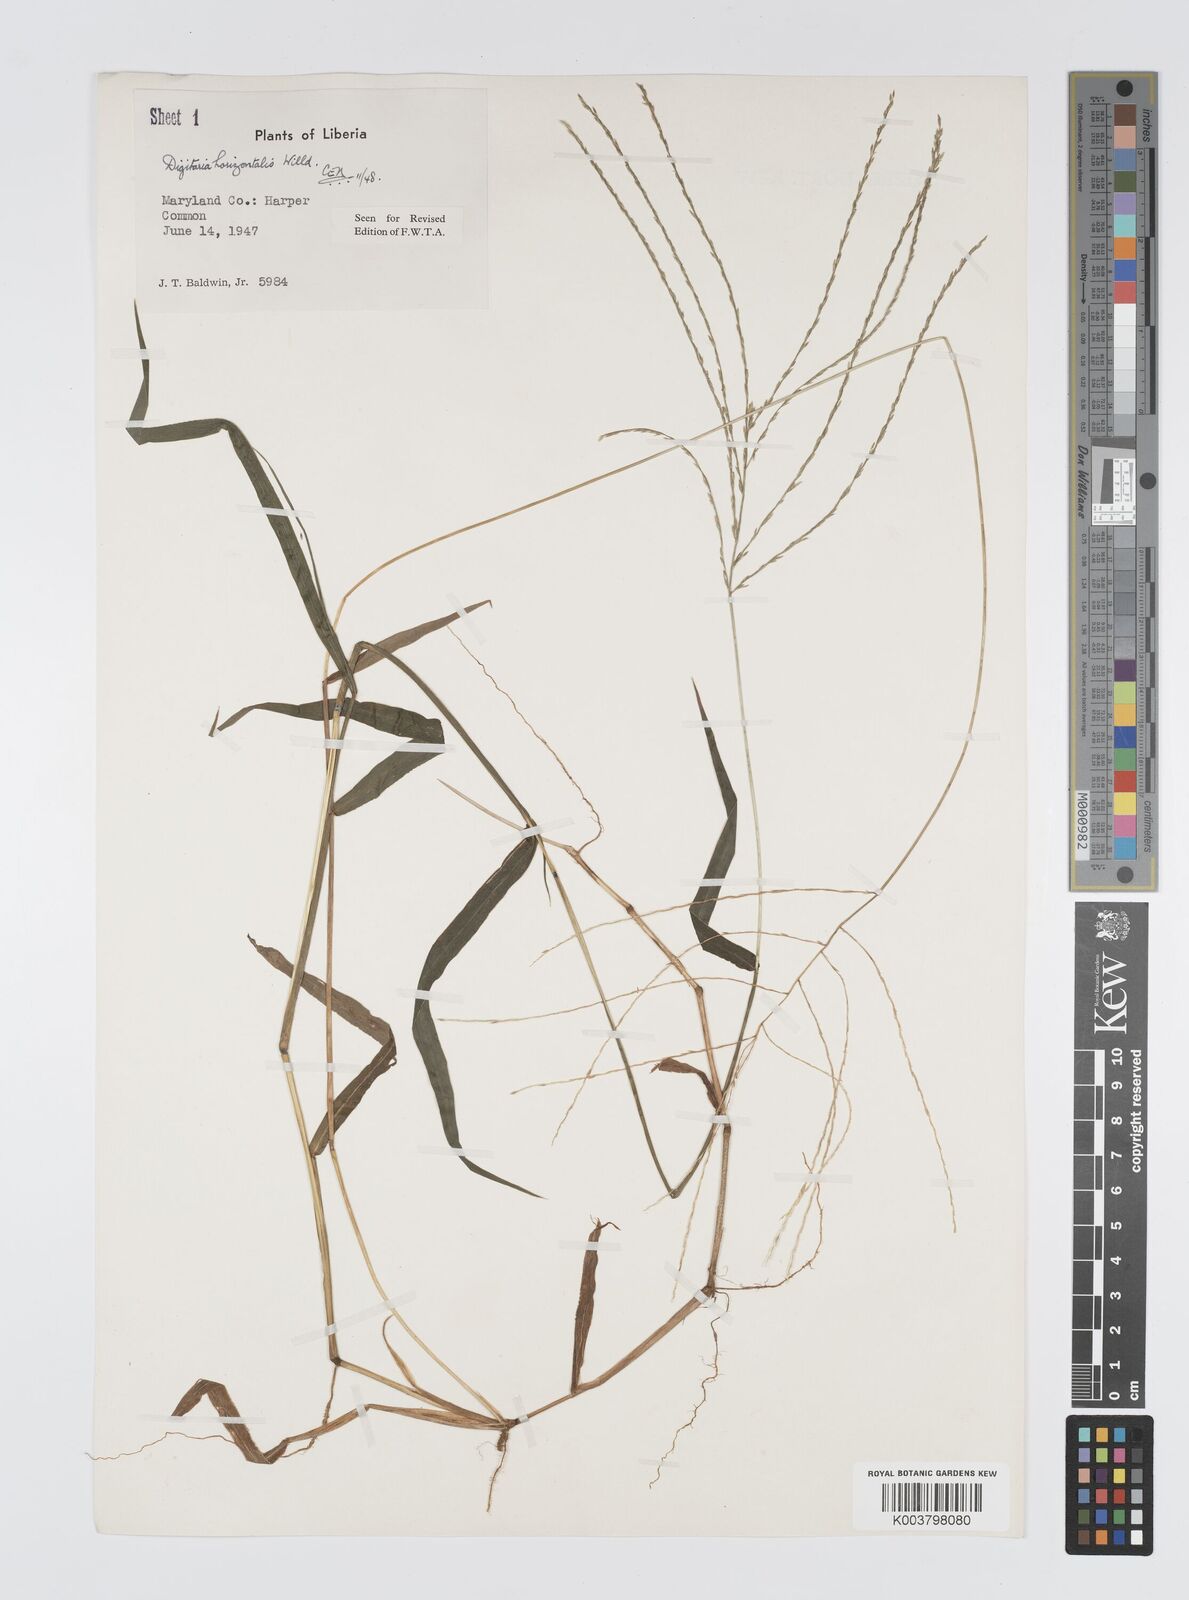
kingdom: Plantae
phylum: Tracheophyta
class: Liliopsida
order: Poales
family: Poaceae
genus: Digitaria
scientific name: Digitaria horizontalis
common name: Jamaican crabgrass
